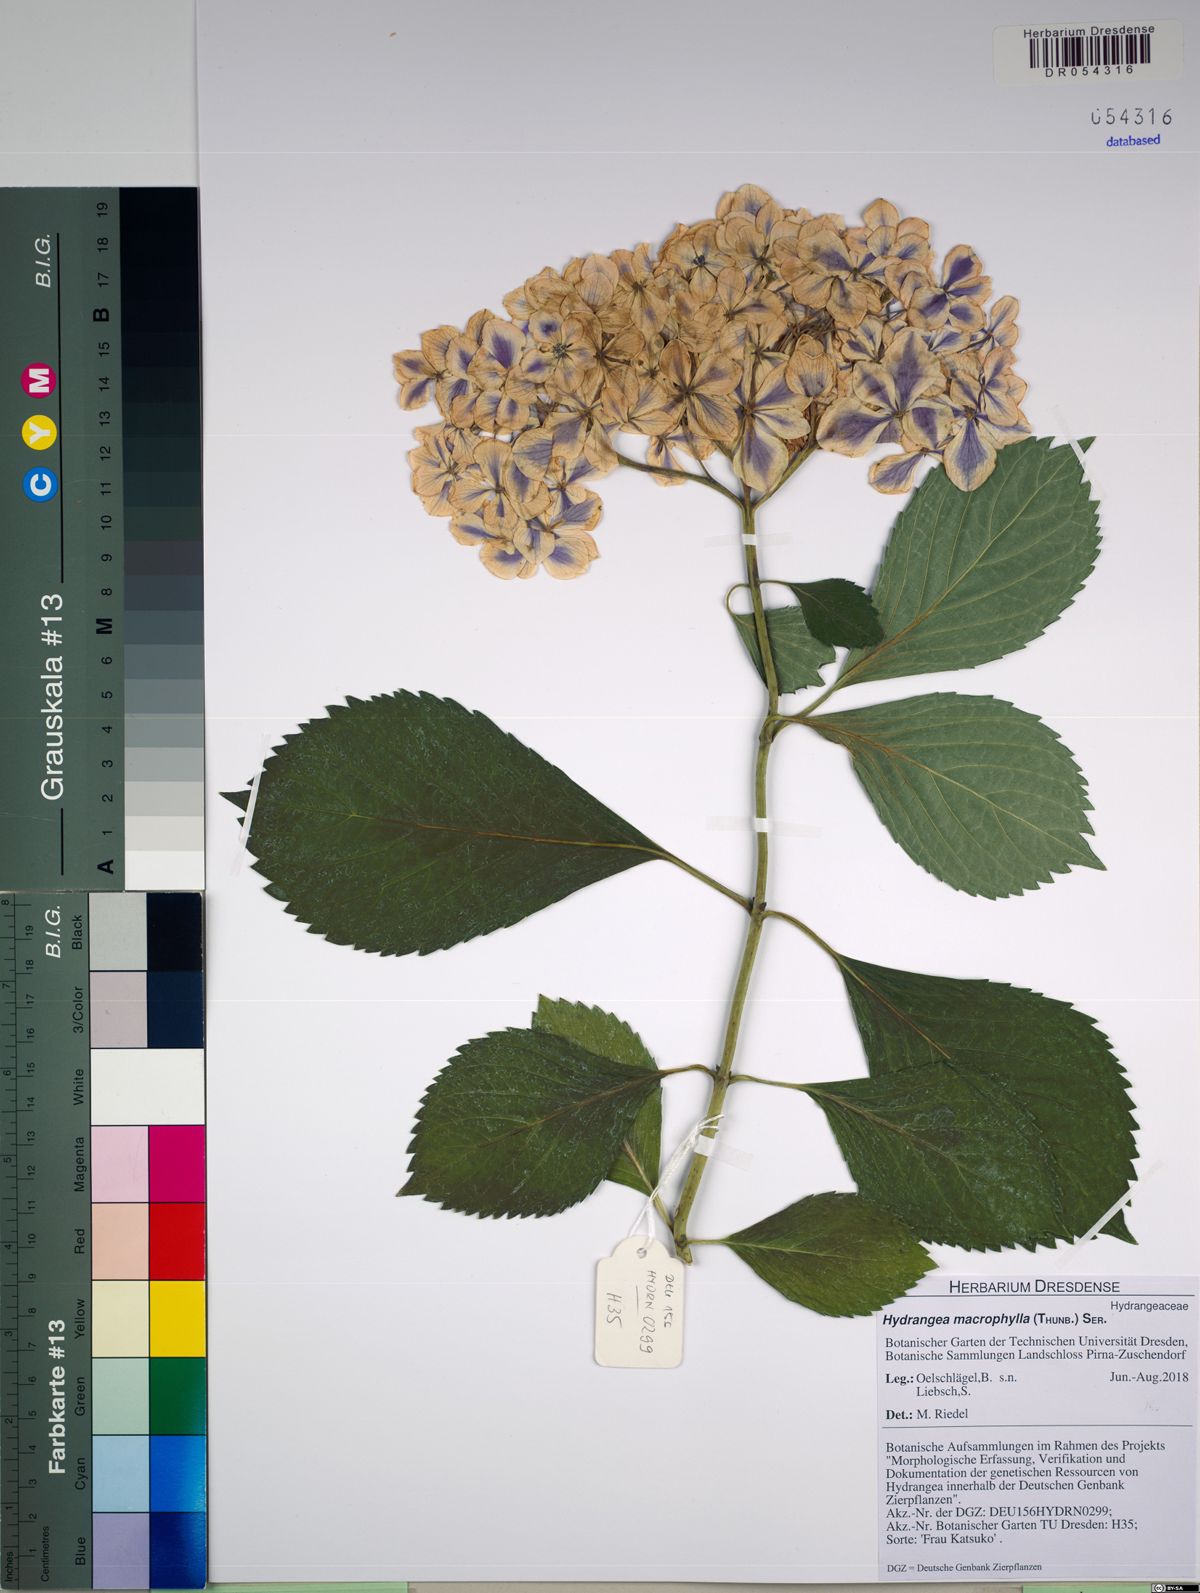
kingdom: Plantae
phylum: Tracheophyta
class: Magnoliopsida
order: Cornales
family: Hydrangeaceae
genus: Hydrangea
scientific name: Hydrangea macrophylla
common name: Hydrangea
